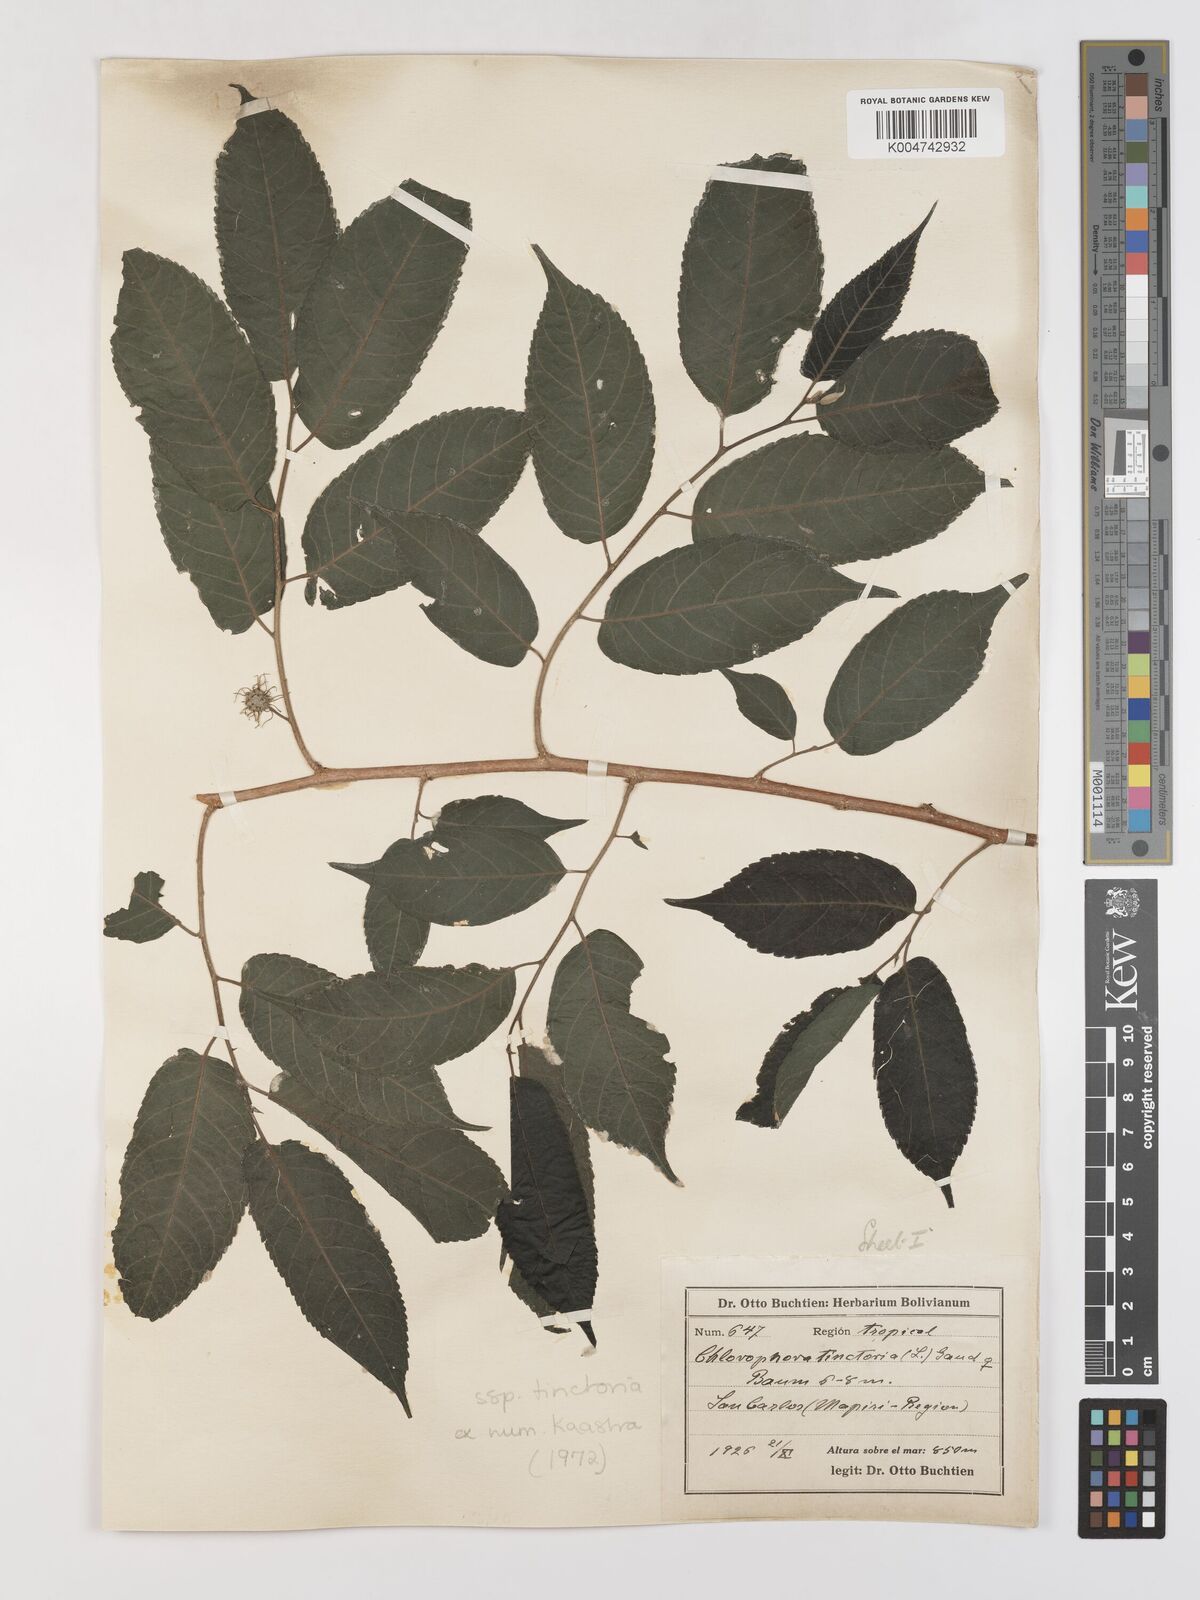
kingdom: Plantae
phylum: Tracheophyta
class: Magnoliopsida
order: Rosales
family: Moraceae
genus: Maclura
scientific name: Maclura tinctoria
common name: Old fustic
